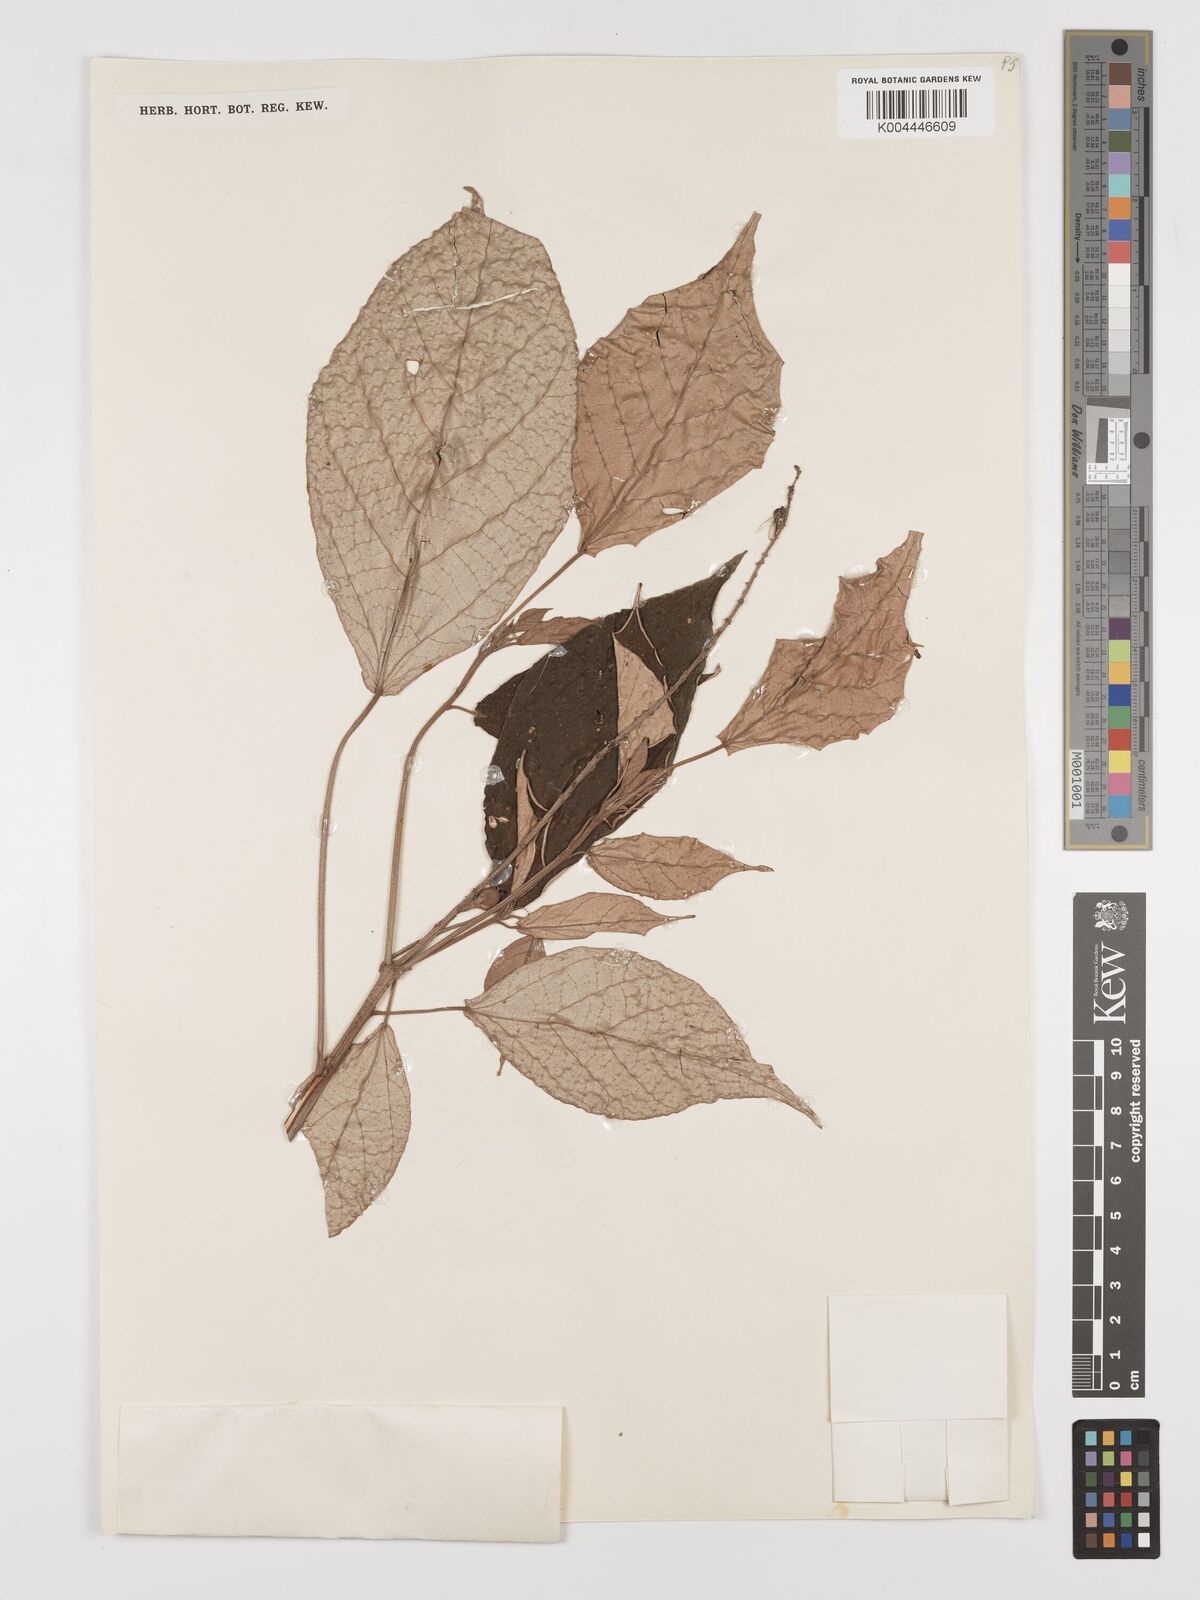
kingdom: Plantae
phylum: Tracheophyta
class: Magnoliopsida
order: Malpighiales
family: Euphorbiaceae
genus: Croton
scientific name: Croton argyratus
